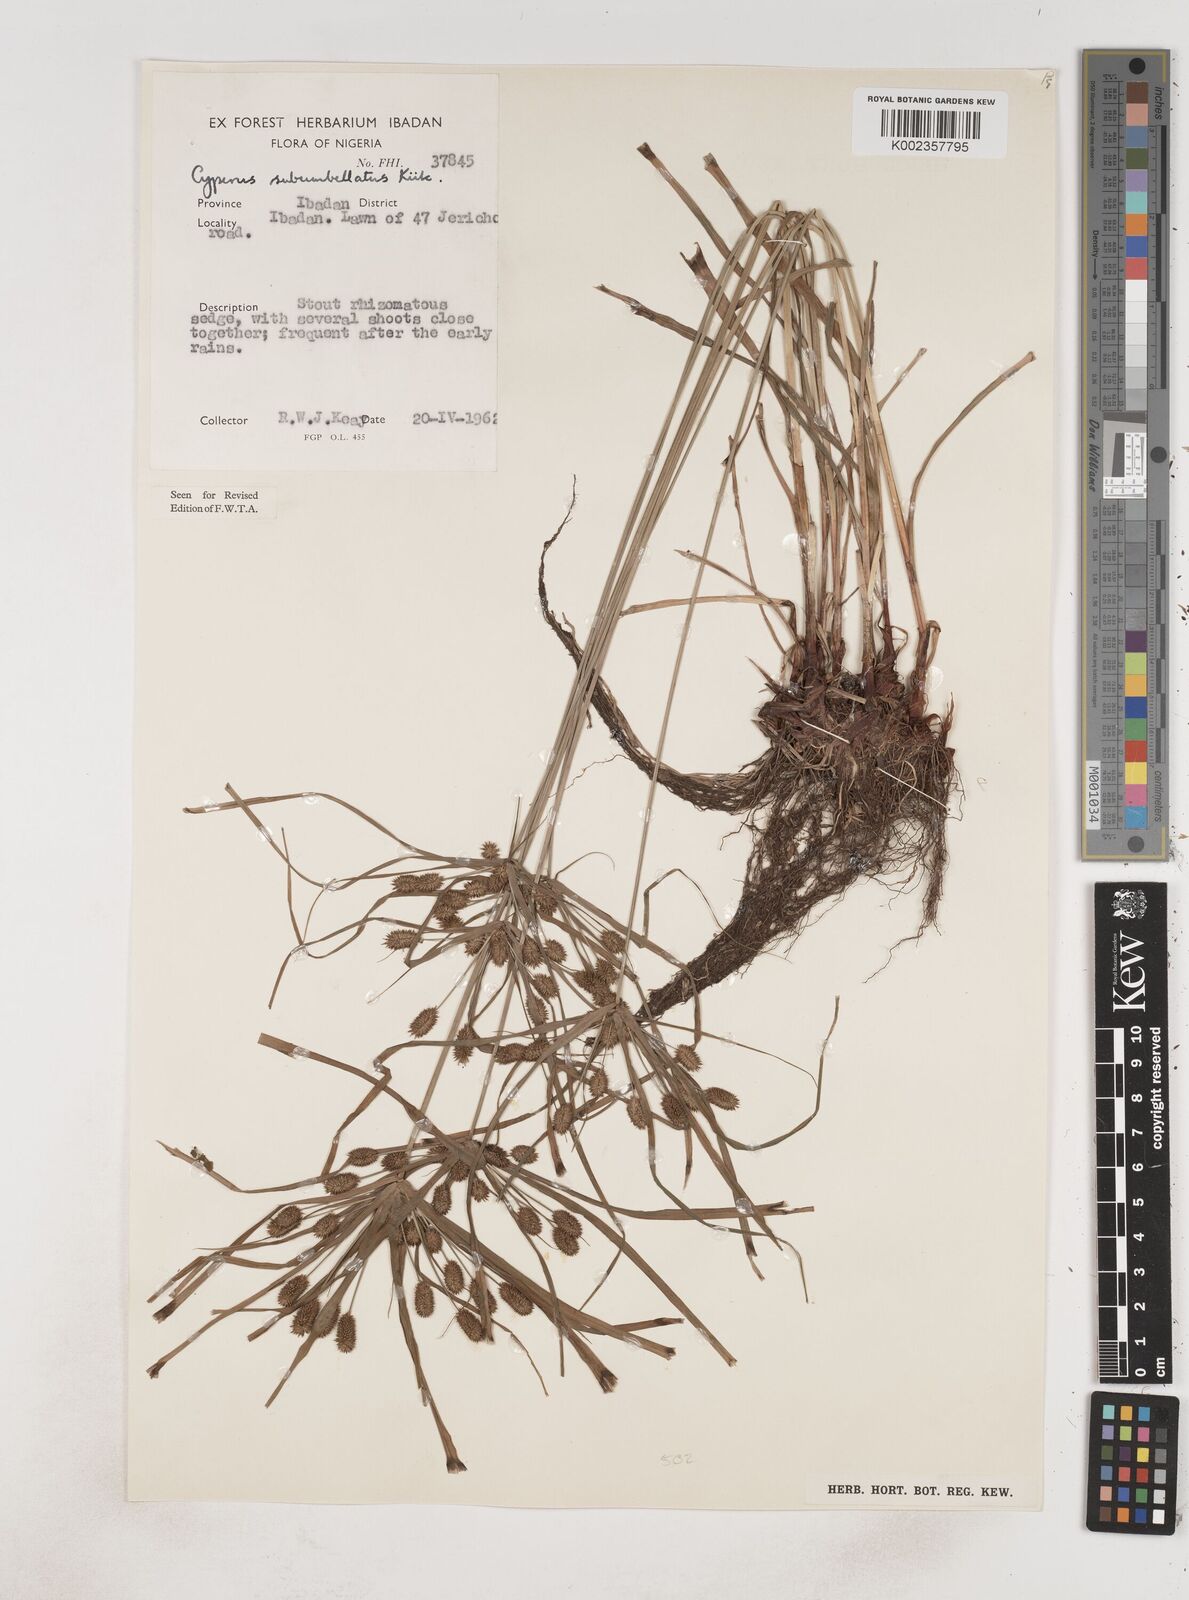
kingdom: Plantae
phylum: Tracheophyta
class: Liliopsida
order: Poales
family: Cyperaceae
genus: Cyperus
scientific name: Cyperus sublimis
